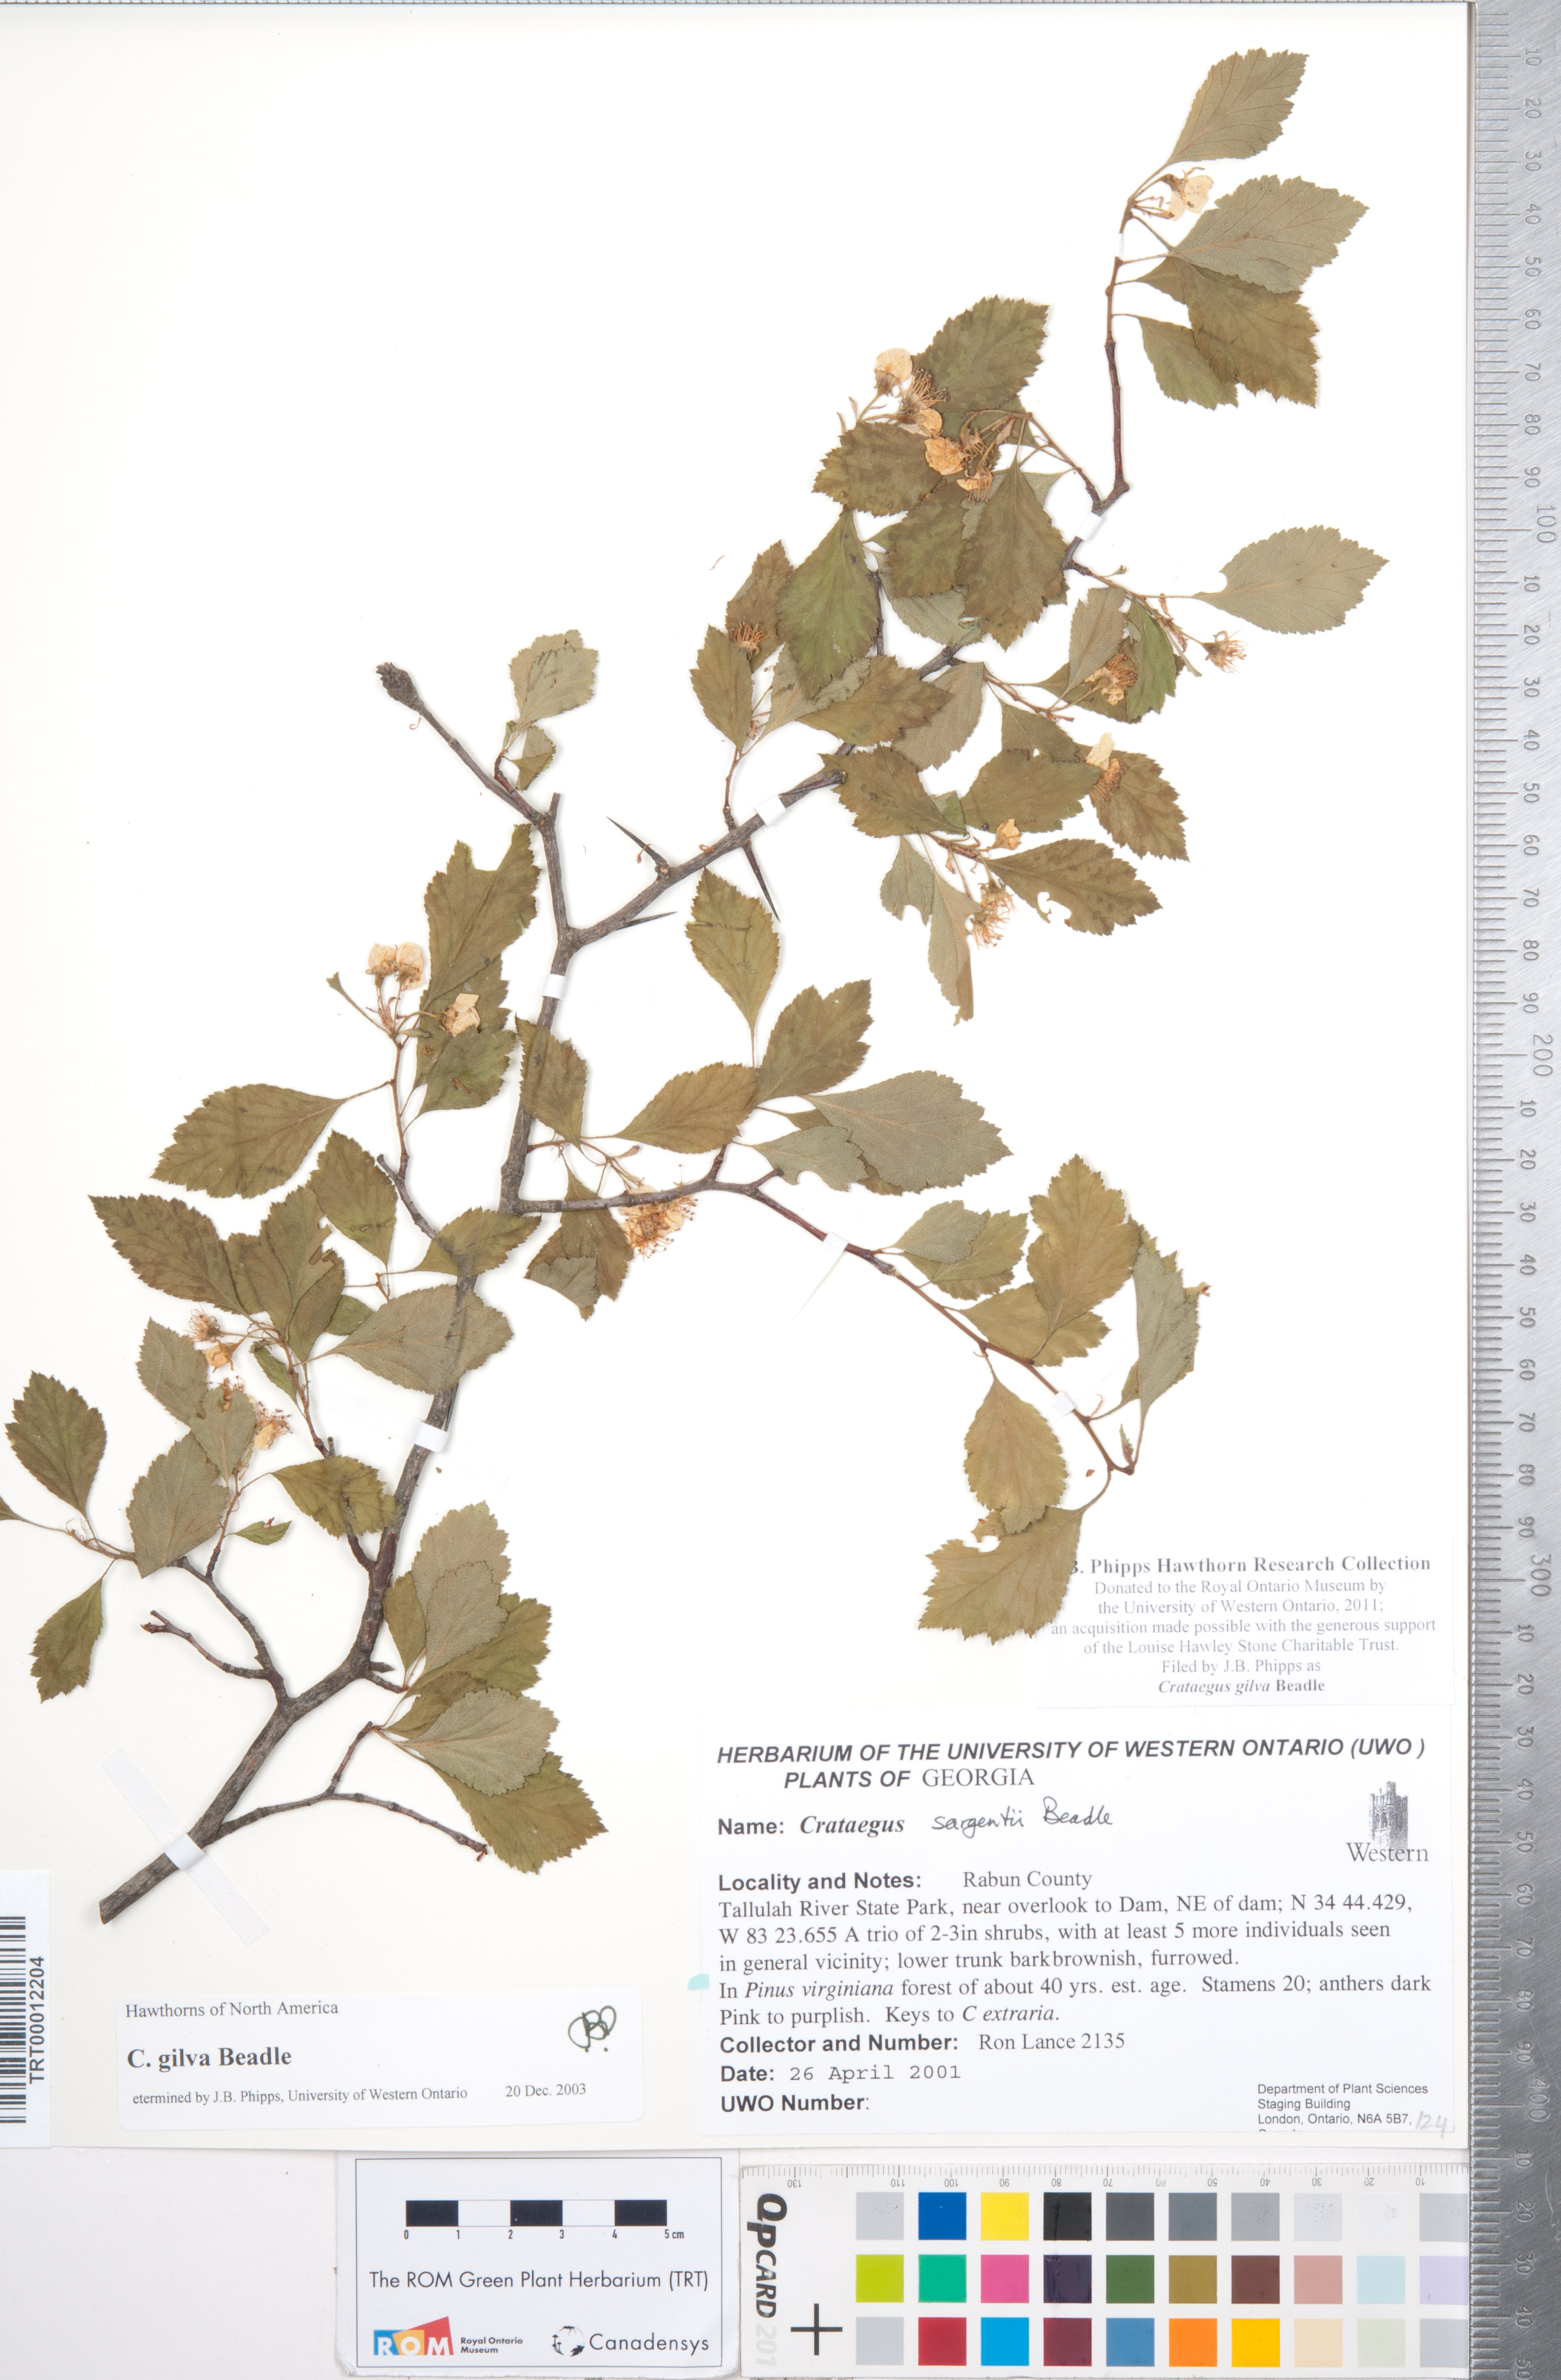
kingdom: Plantae
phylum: Tracheophyta
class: Magnoliopsida
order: Rosales
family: Rosaceae
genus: Crataegus
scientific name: Crataegus sargentii
